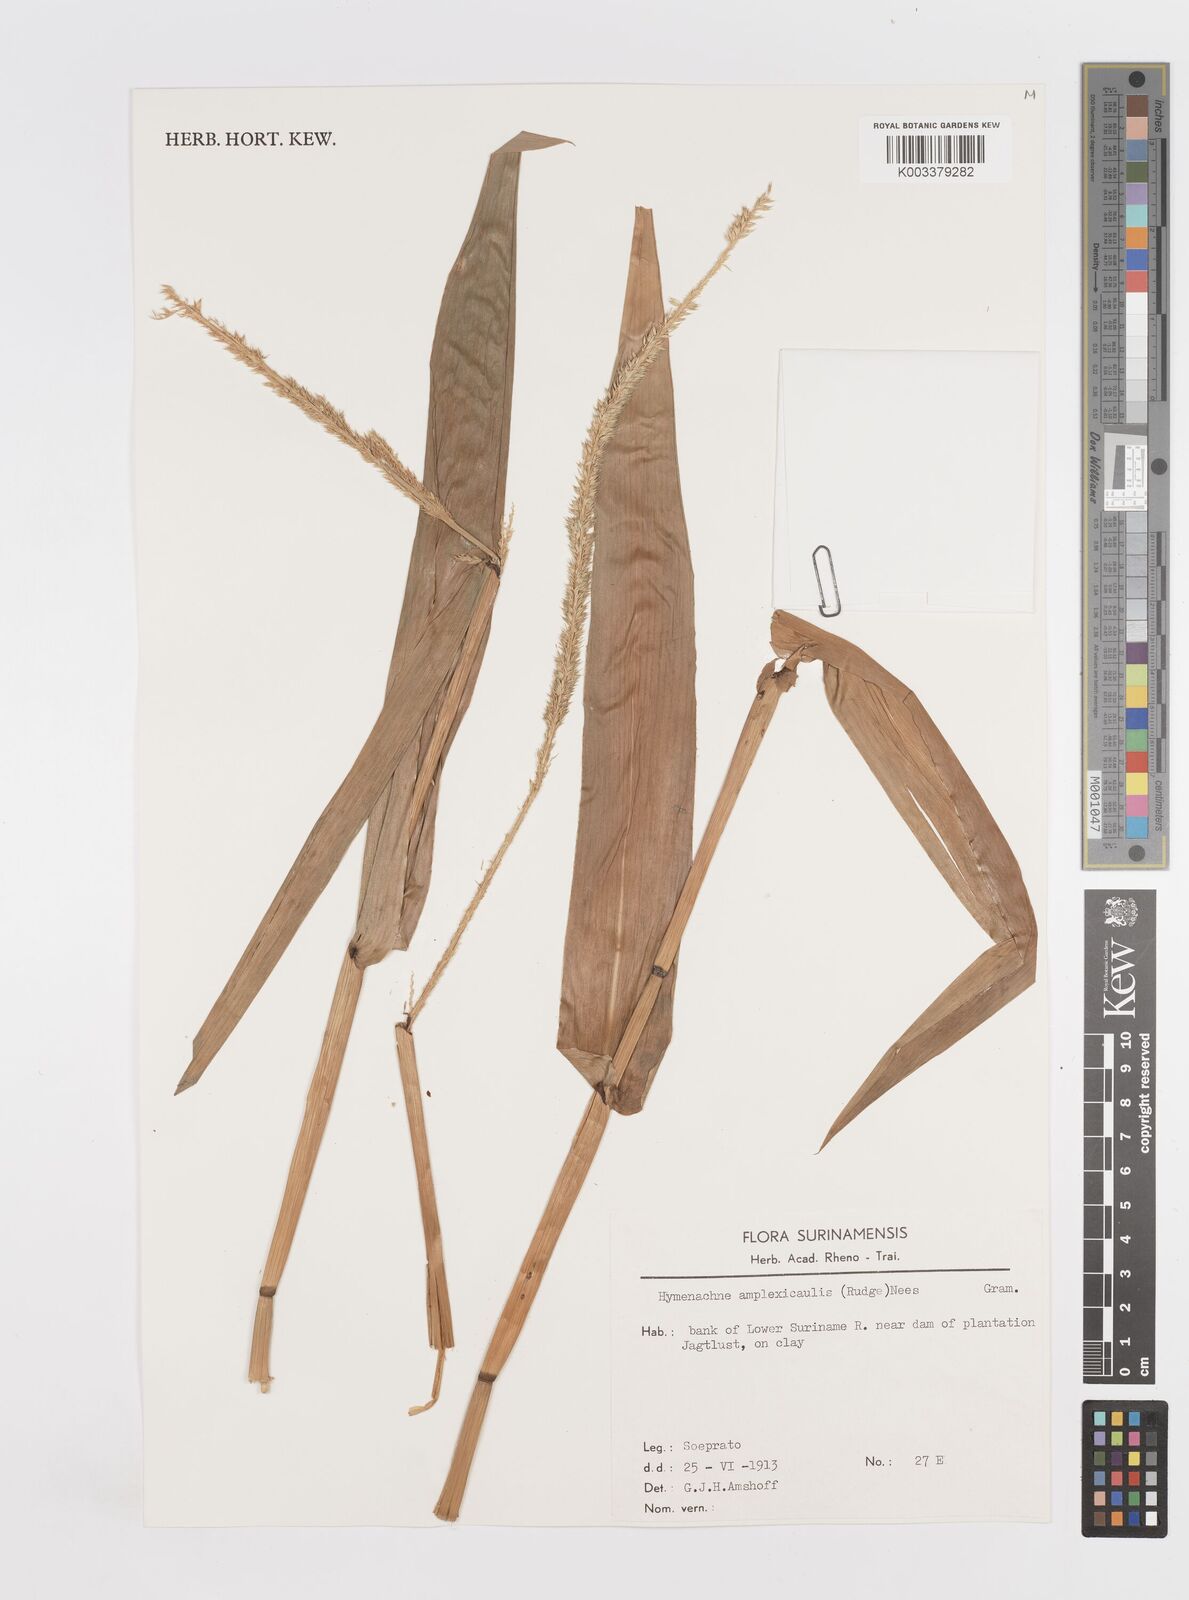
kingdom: Plantae
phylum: Tracheophyta
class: Liliopsida
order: Poales
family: Poaceae
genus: Hymenachne
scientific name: Hymenachne amplexicaulis
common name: Olive hymenachne
